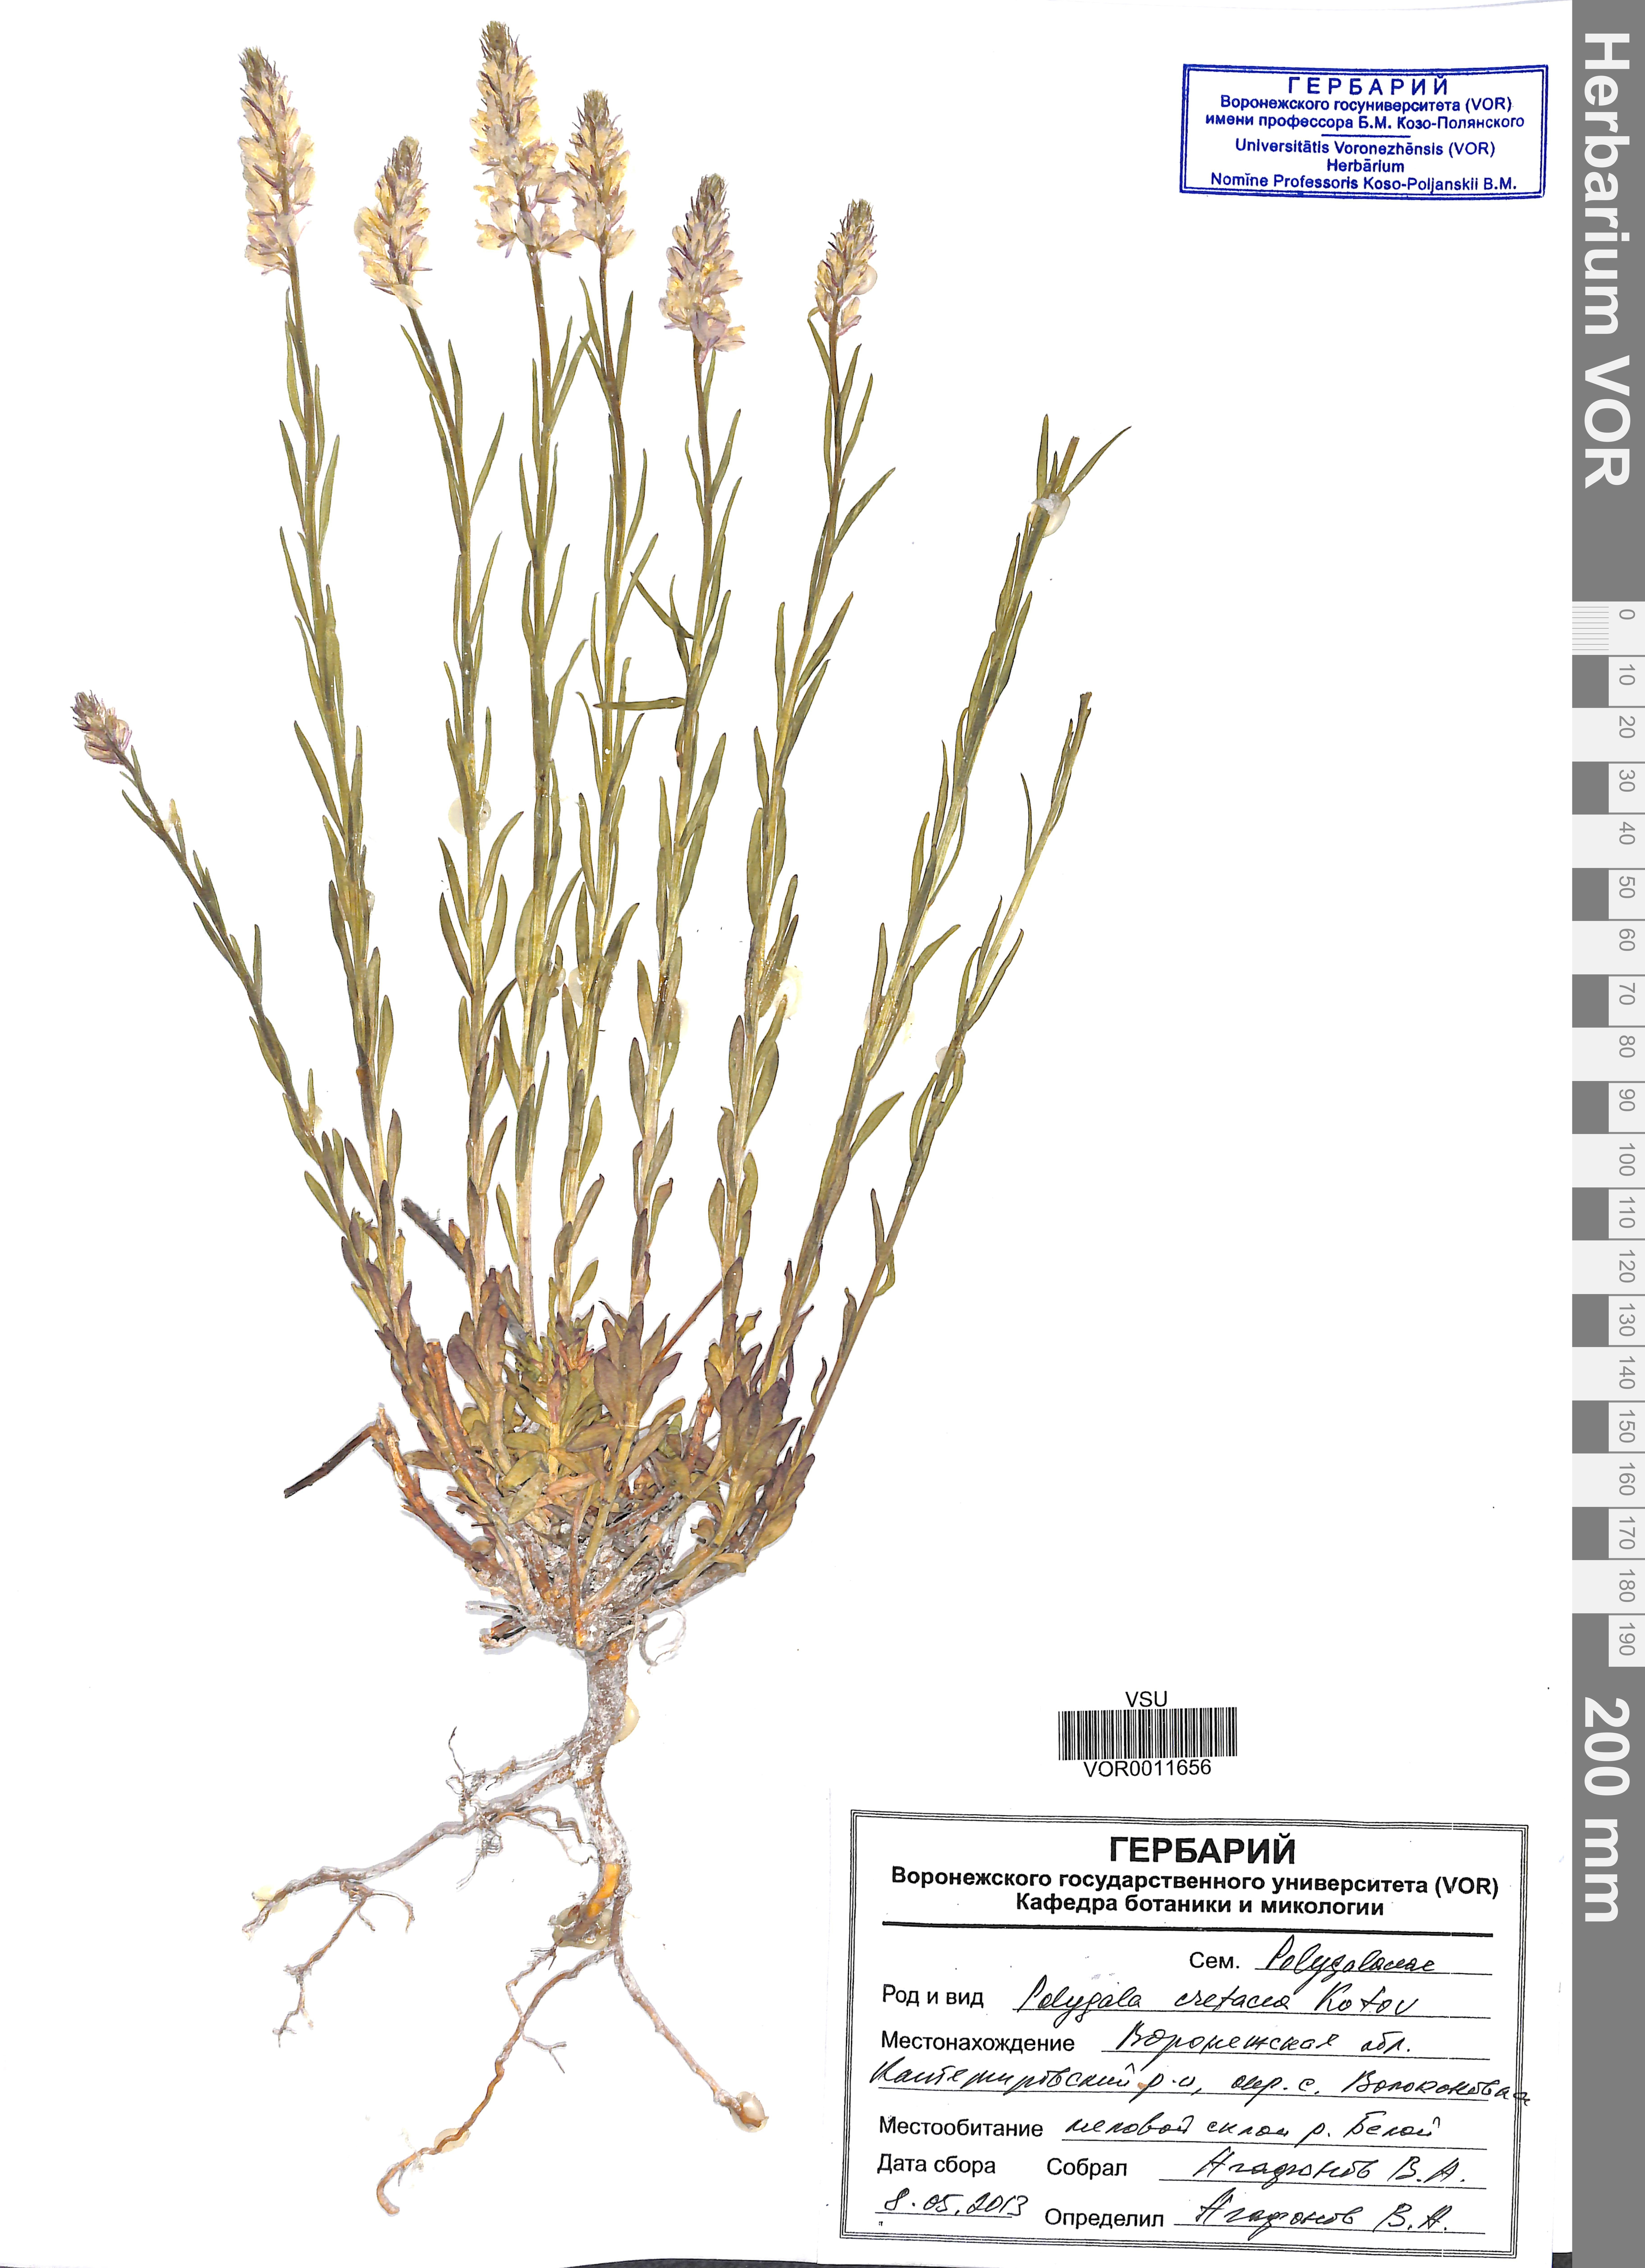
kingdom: Plantae
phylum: Tracheophyta
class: Magnoliopsida
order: Fabales
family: Polygalaceae
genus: Polygala
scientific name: Polygala nicaeensis
